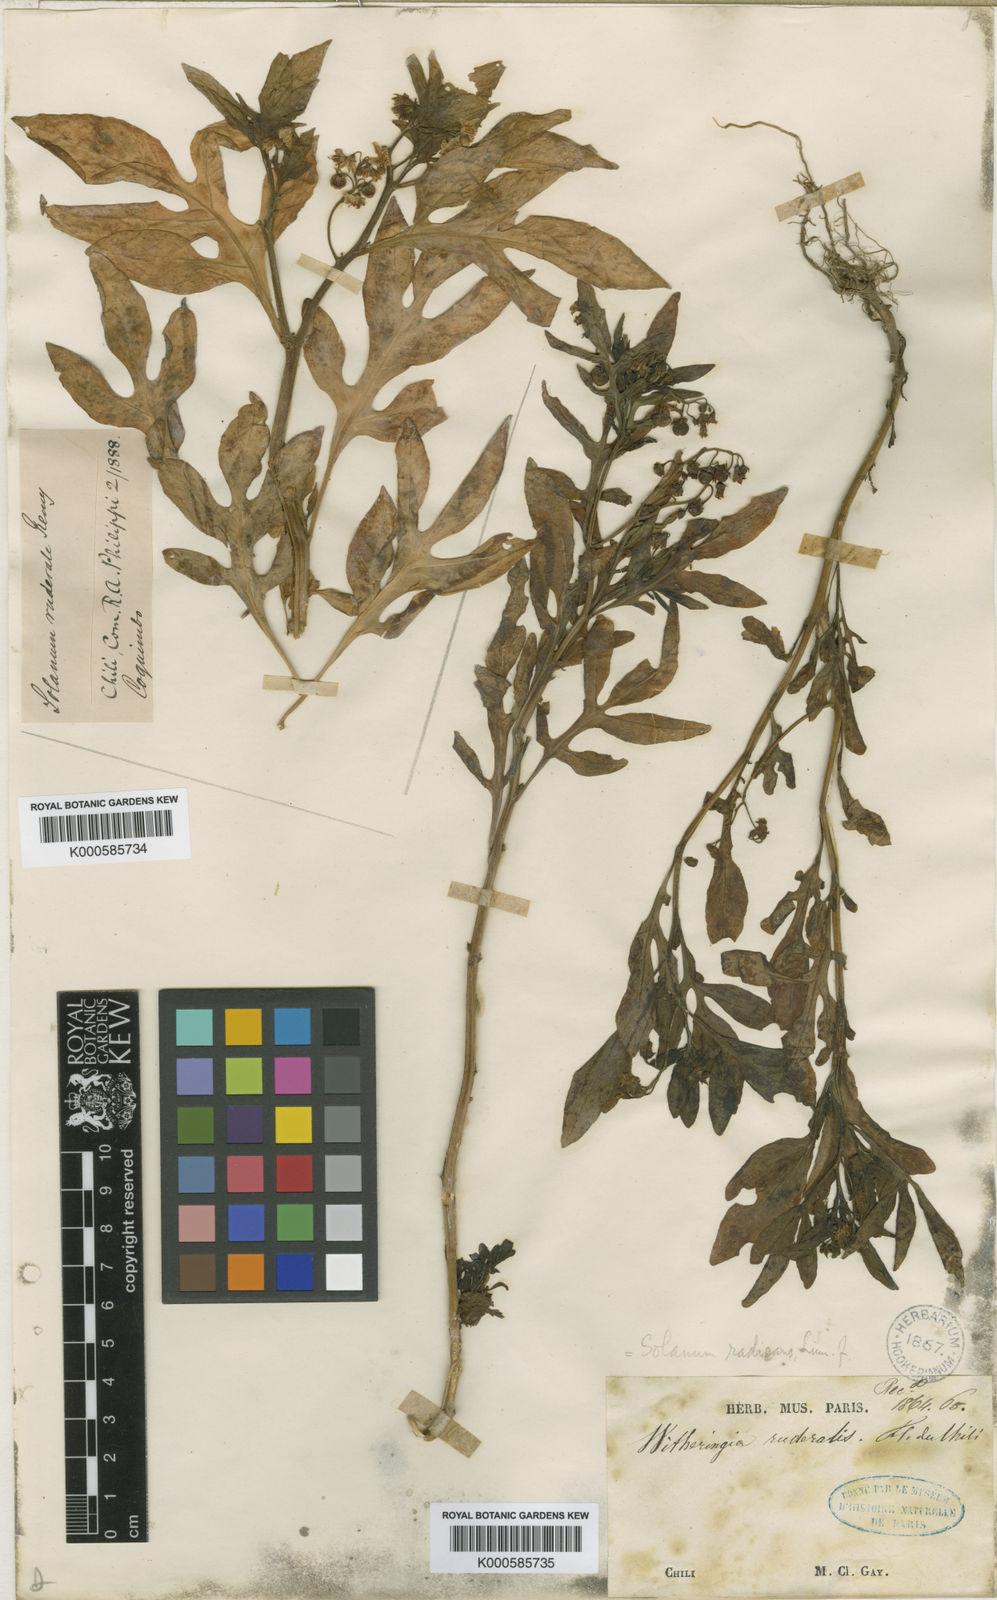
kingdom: Plantae
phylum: Tracheophyta
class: Magnoliopsida
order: Solanales
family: Solanaceae
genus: Solanum
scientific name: Solanum radicans
